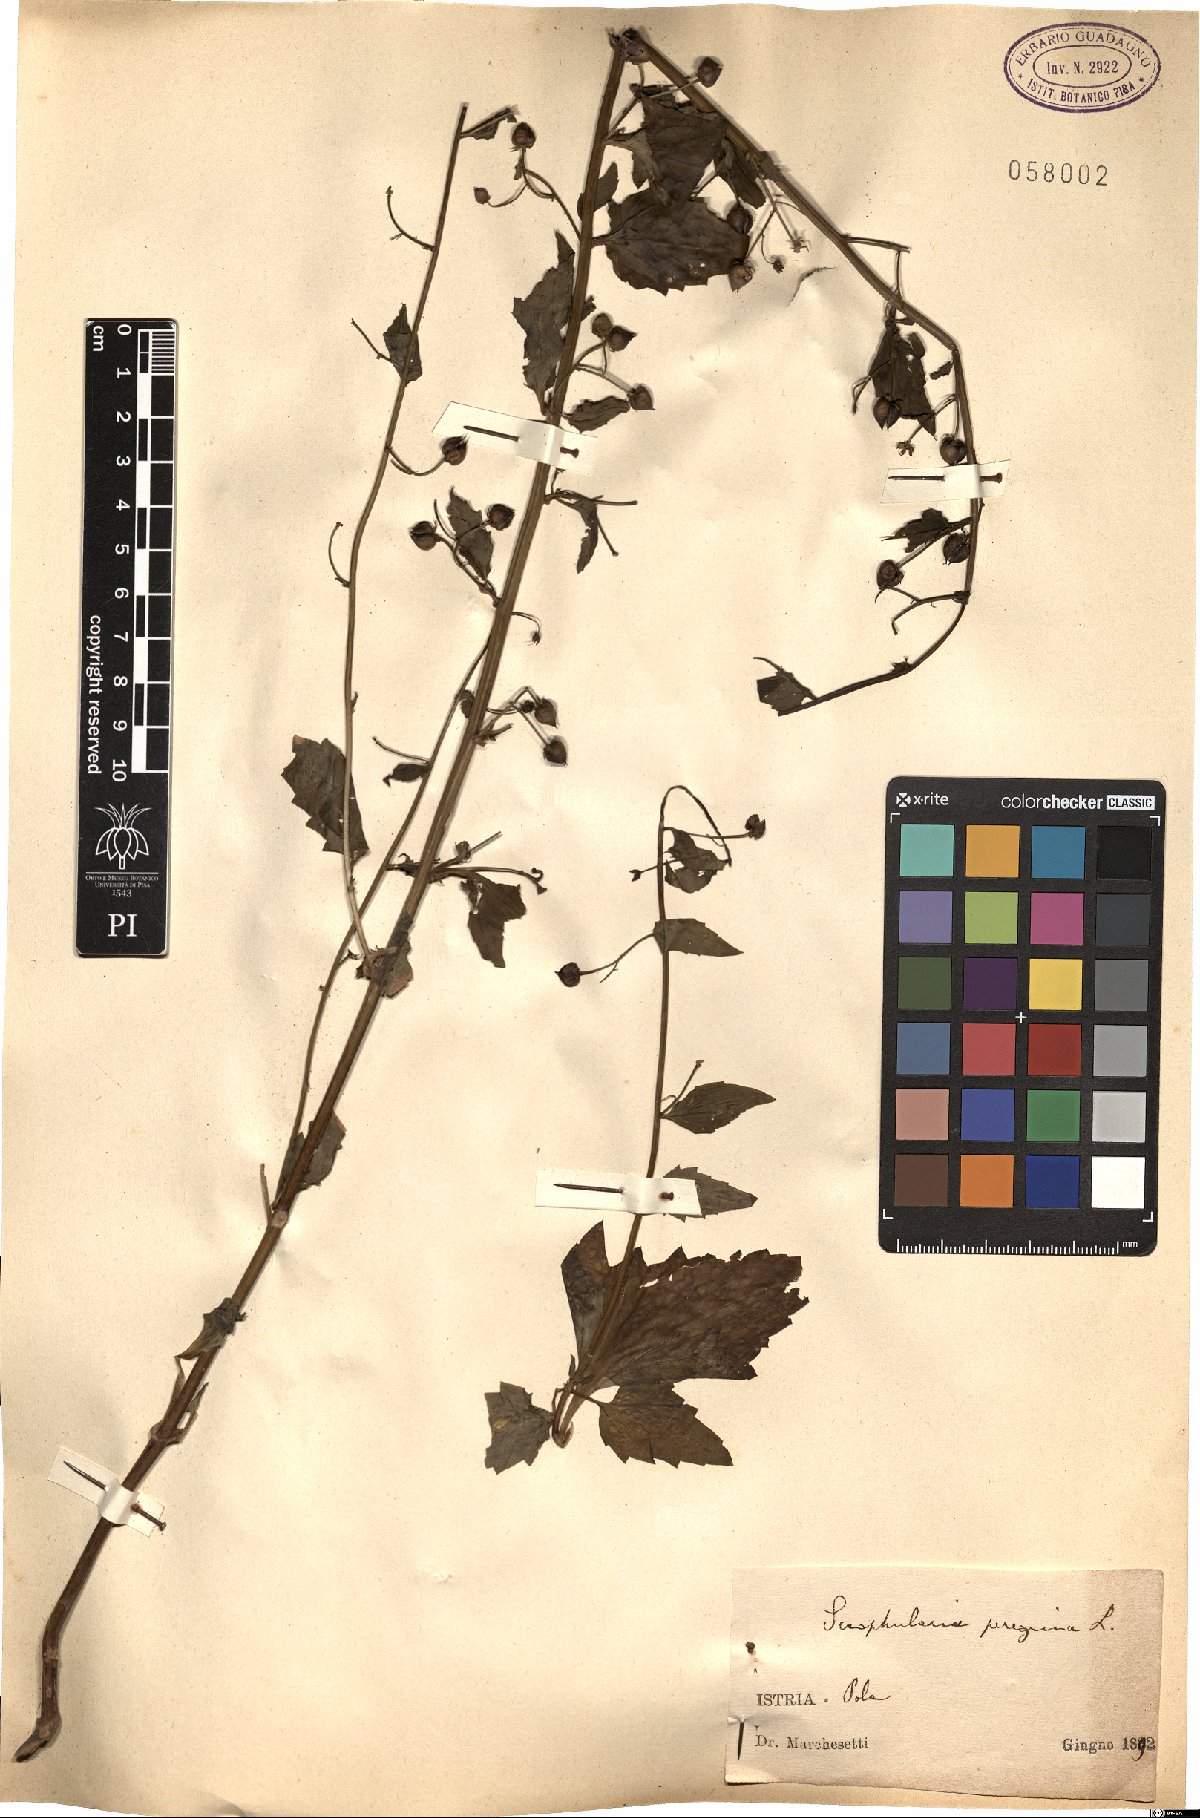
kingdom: Plantae
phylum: Tracheophyta
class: Magnoliopsida
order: Lamiales
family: Scrophulariaceae
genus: Scrophularia
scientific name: Scrophularia peregrina
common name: Mediterranean figwort
